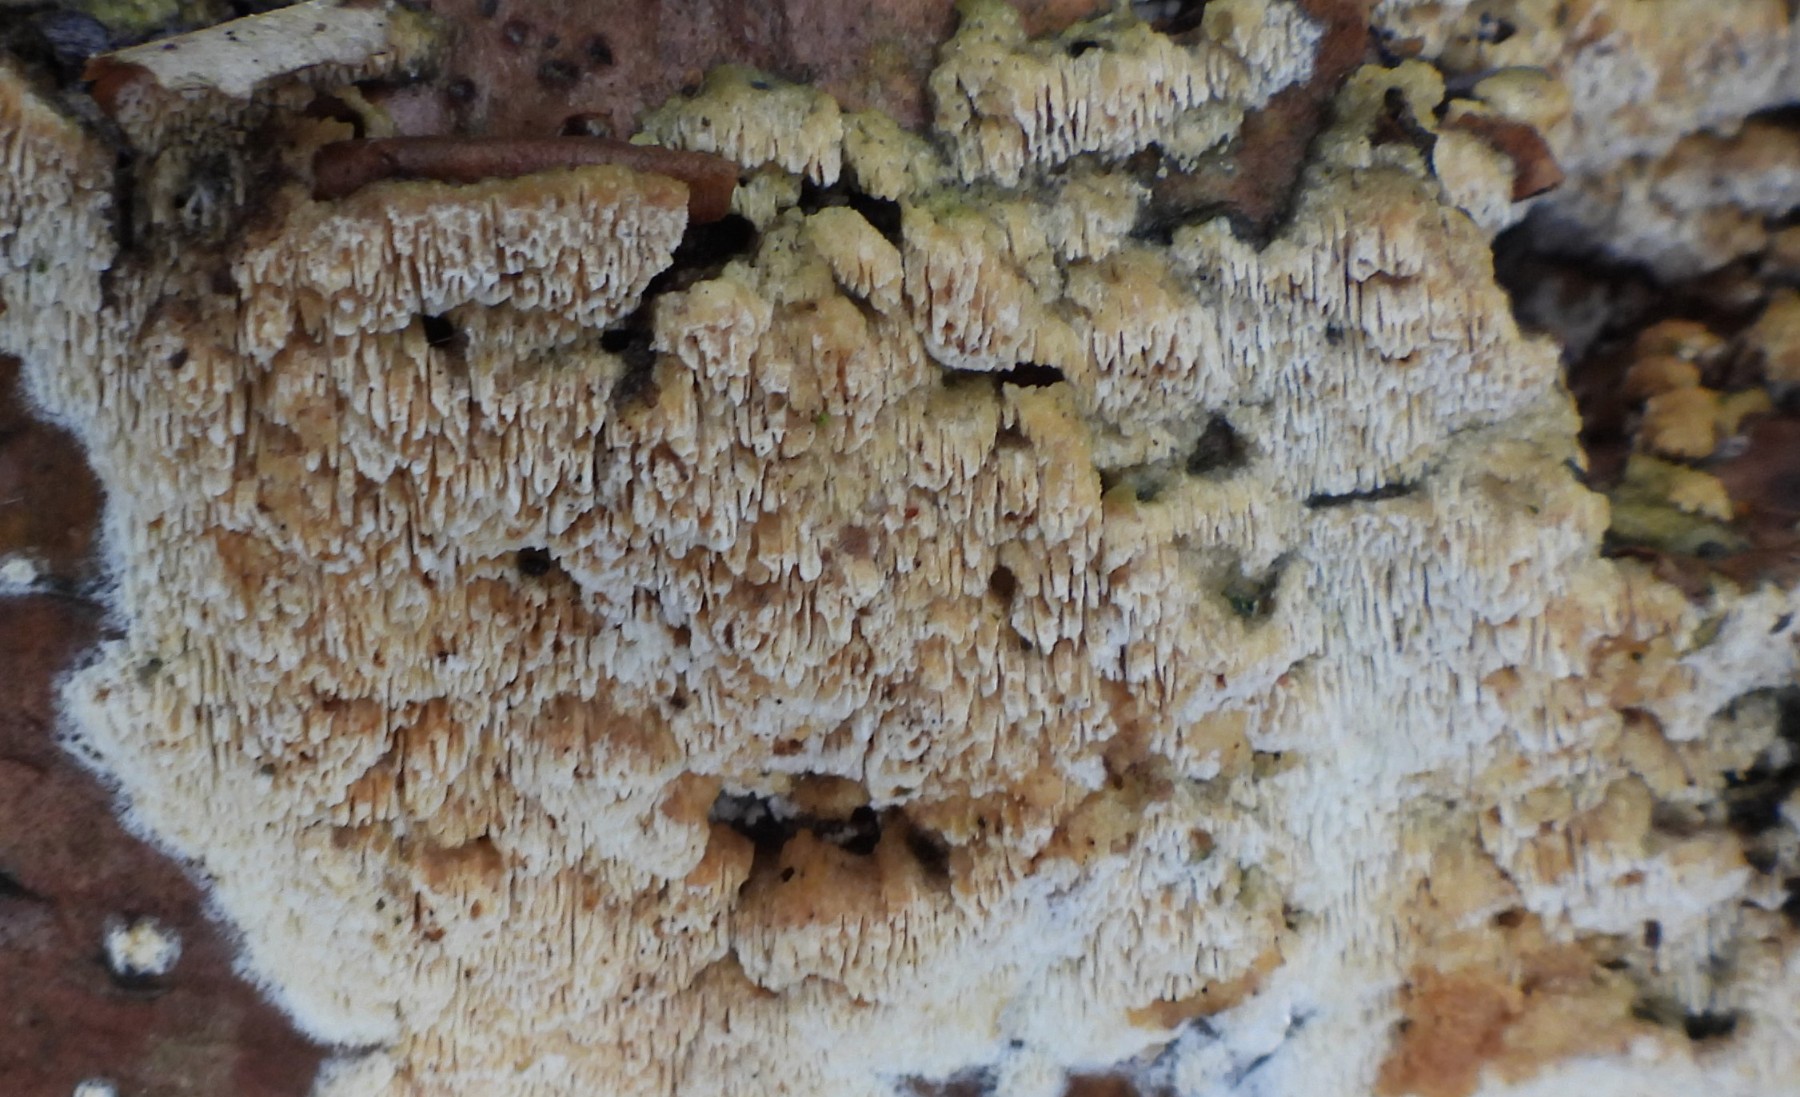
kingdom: Fungi
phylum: Basidiomycota
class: Agaricomycetes
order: Hymenochaetales
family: Schizoporaceae
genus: Schizopora
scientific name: Schizopora paradoxa
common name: hvid tandsvamp
